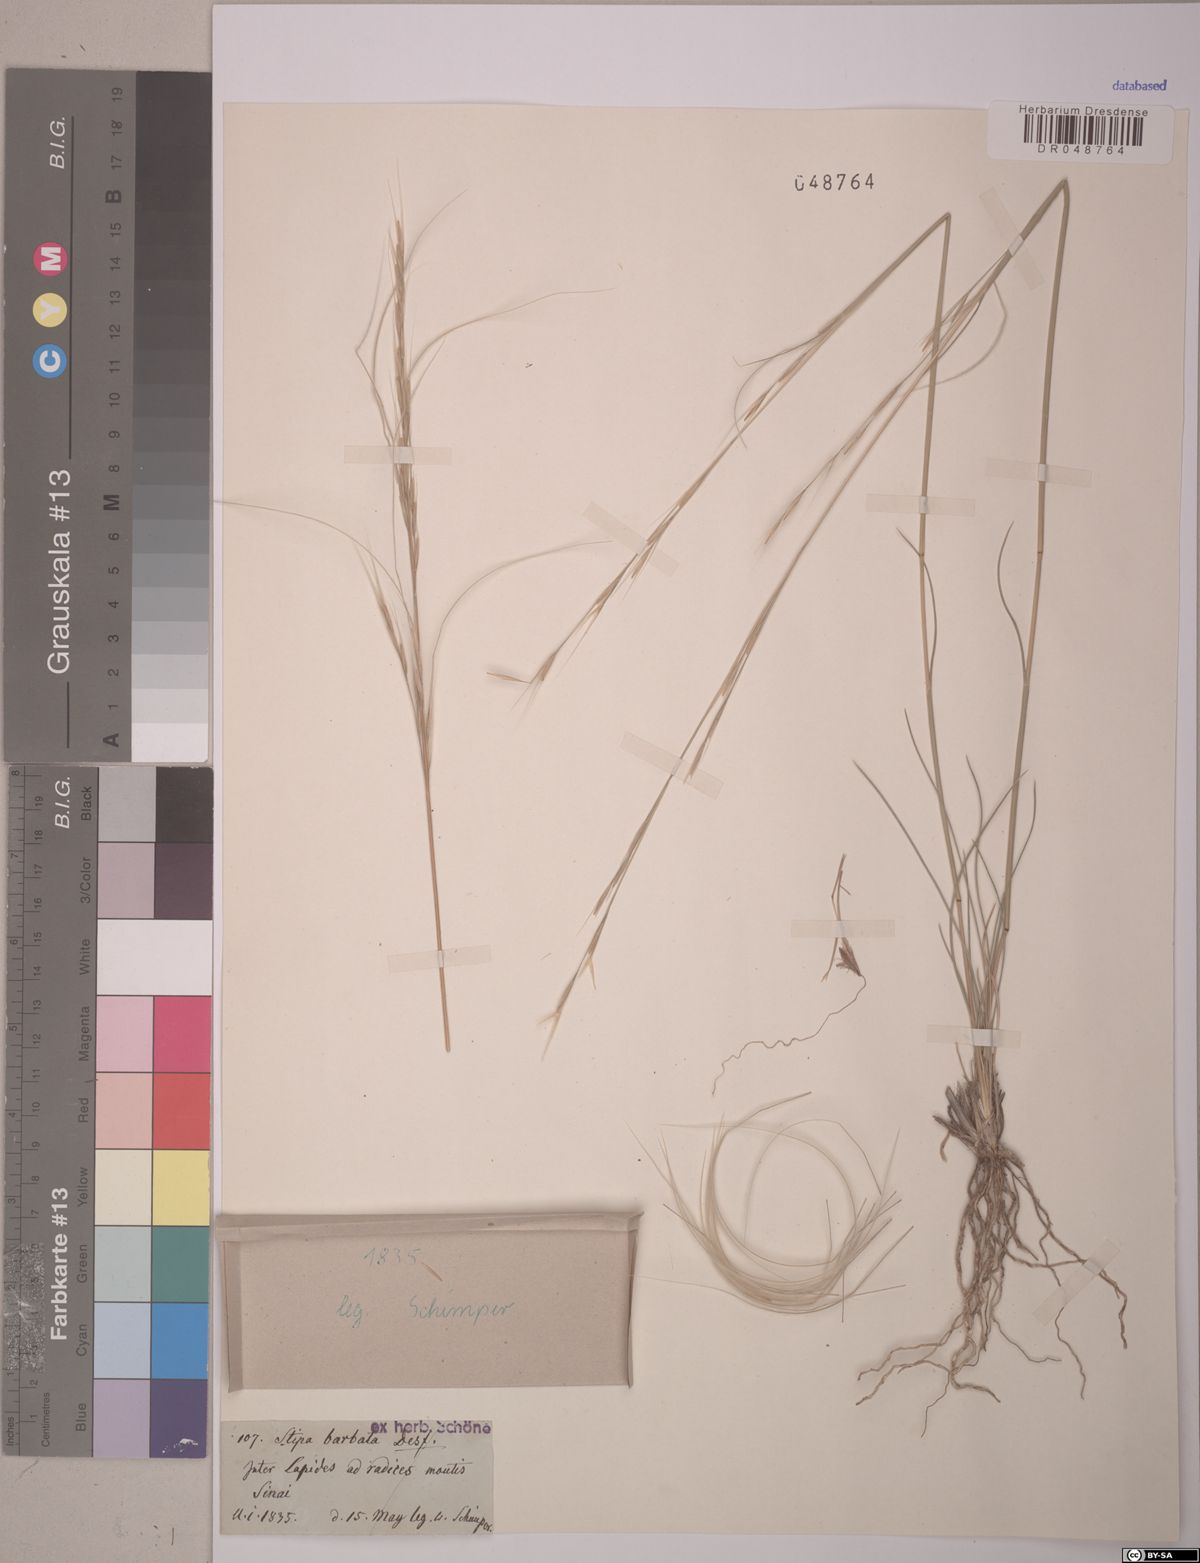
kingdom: Plantae
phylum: Tracheophyta
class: Liliopsida
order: Poales
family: Poaceae
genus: Stipa
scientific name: Stipa arabica
